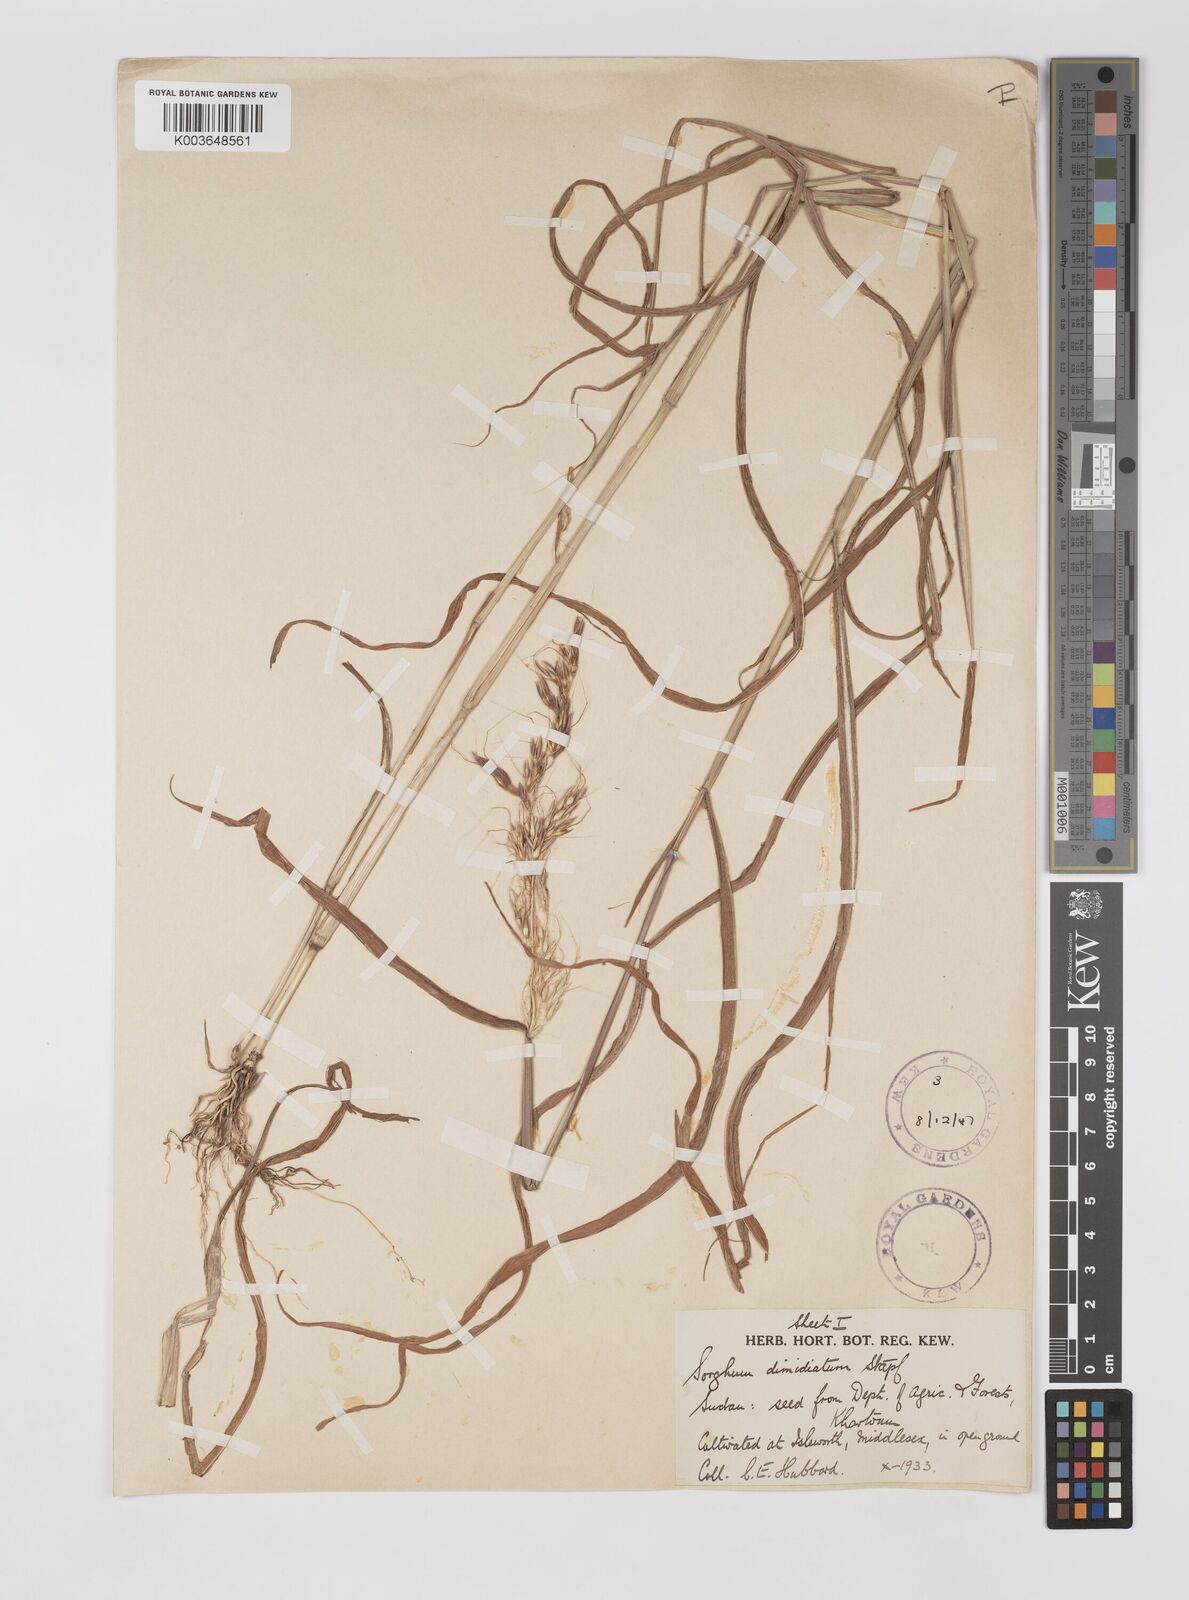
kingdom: Plantae
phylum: Tracheophyta
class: Liliopsida
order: Poales
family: Poaceae
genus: Sarga
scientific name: Sarga purpureosericea
